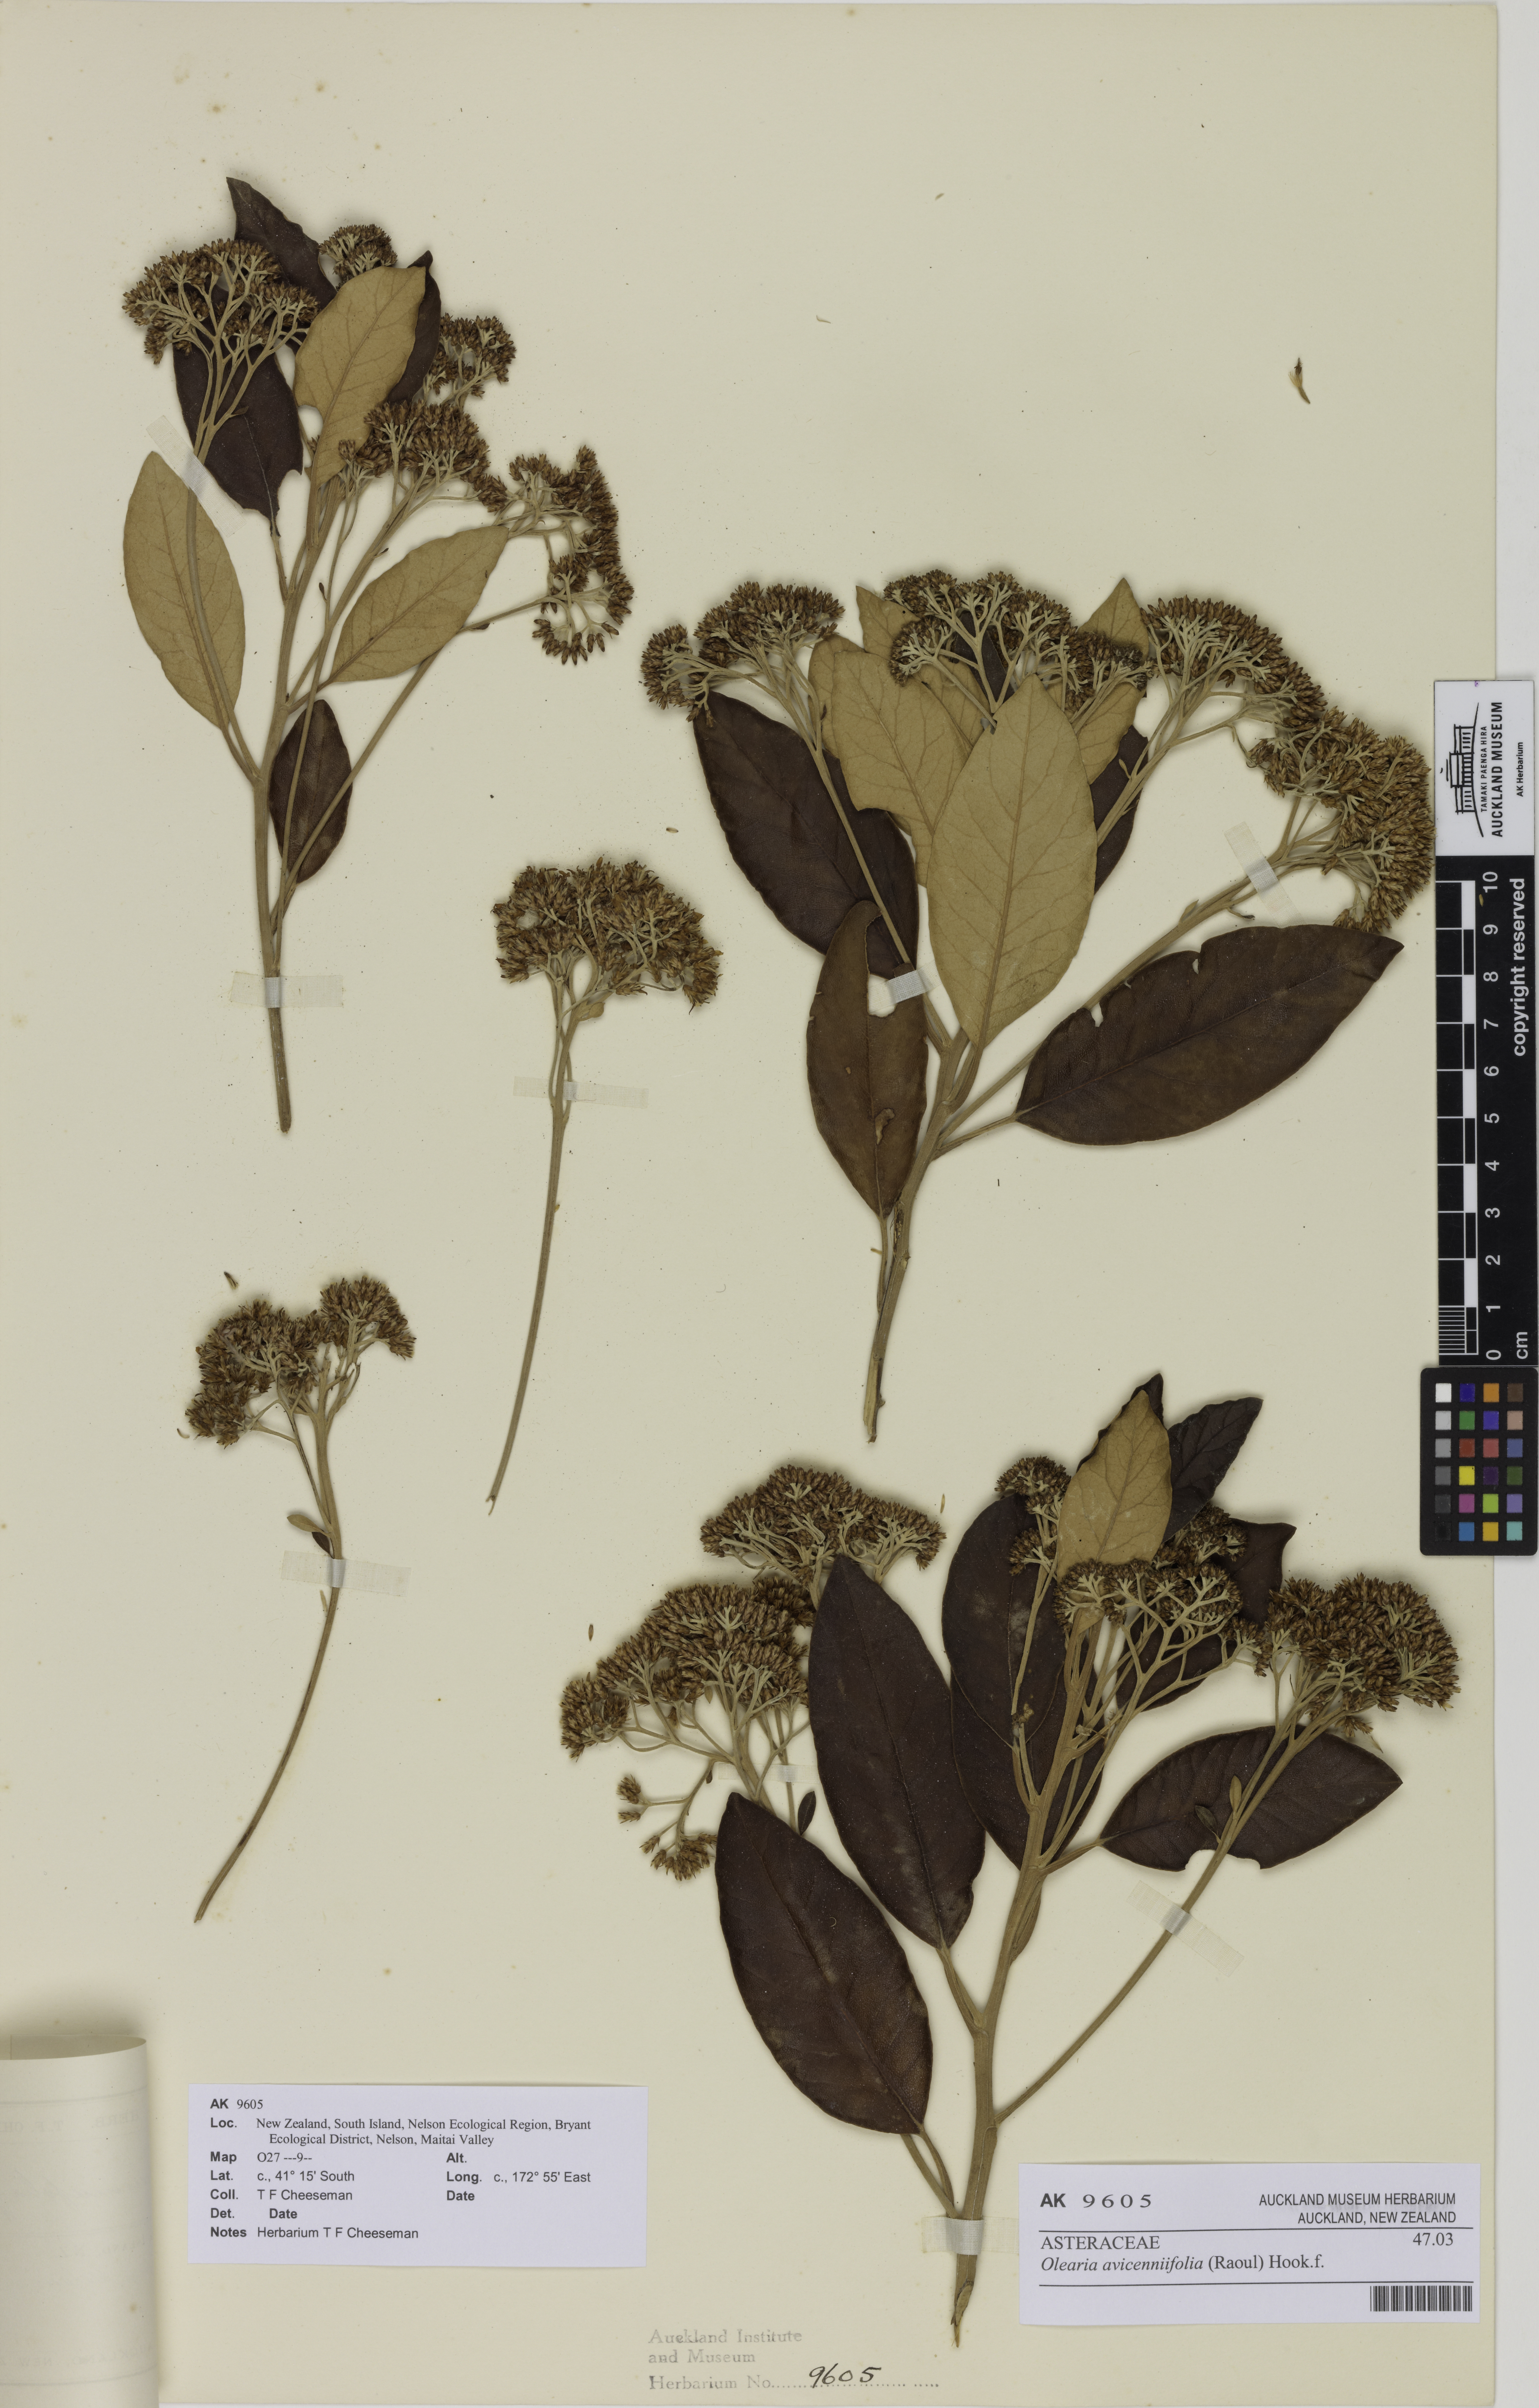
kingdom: Plantae
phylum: Tracheophyta
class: Magnoliopsida
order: Asterales
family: Asteraceae
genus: Olearia
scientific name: Olearia avicenniifolia
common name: Mangrove-leaf daisybush
